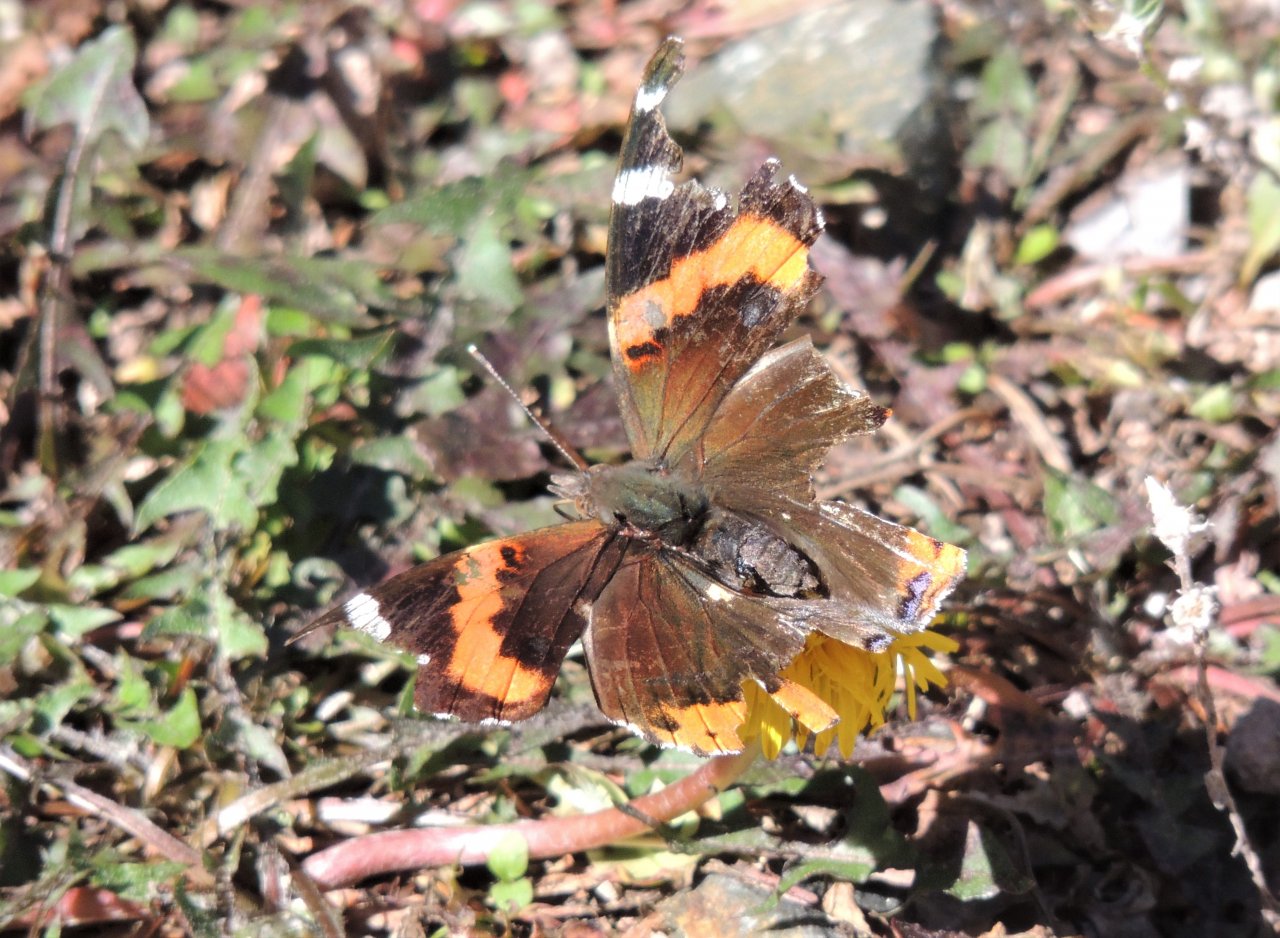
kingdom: Animalia
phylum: Arthropoda
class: Insecta
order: Lepidoptera
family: Nymphalidae
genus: Vanessa
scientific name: Vanessa atalanta
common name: Red Admiral
